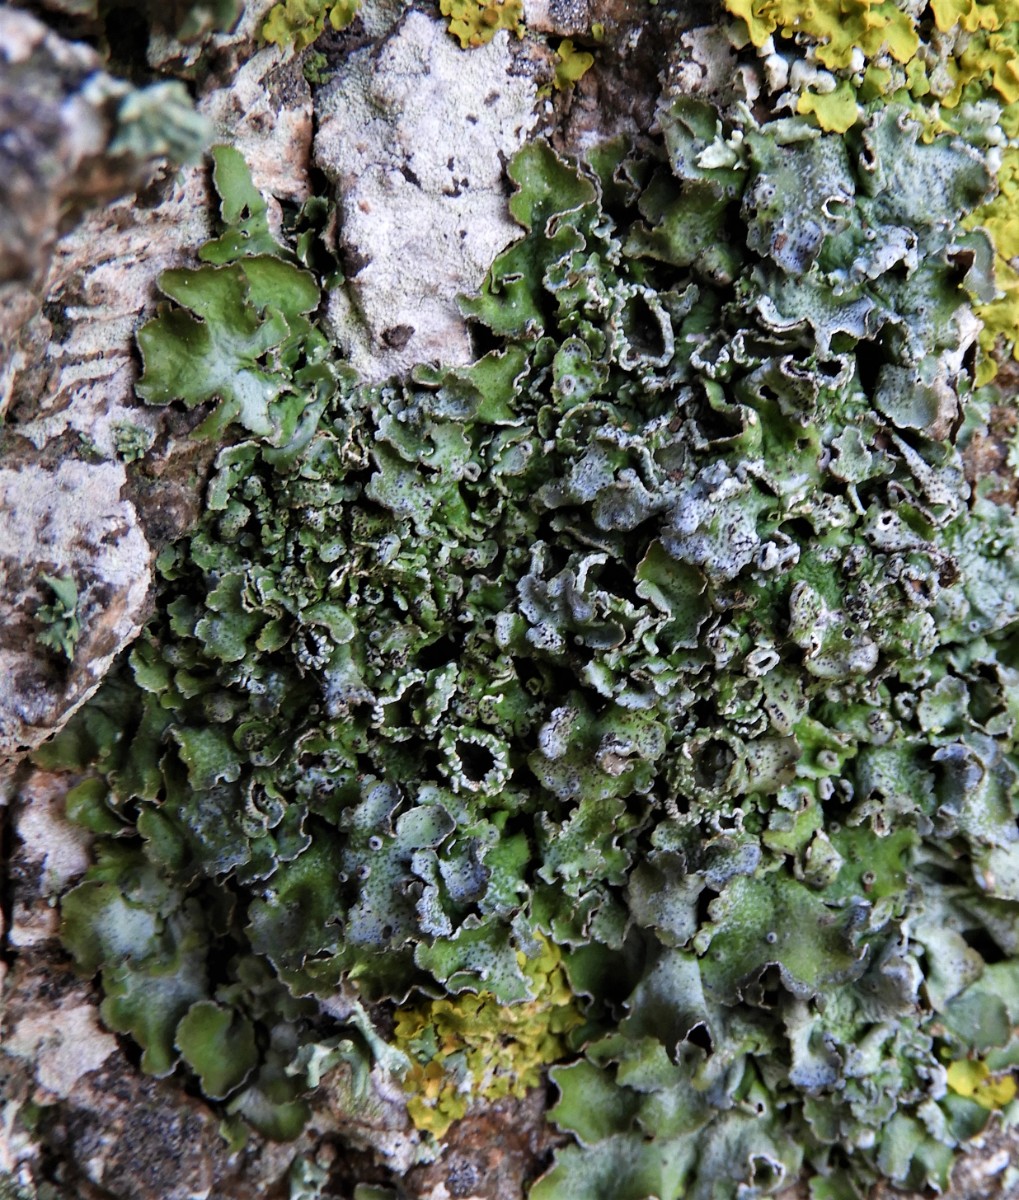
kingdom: Fungi
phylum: Ascomycota
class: Lecanoromycetes
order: Lecanorales
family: Parmeliaceae
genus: Pleurosticta
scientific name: Pleurosticta acetabulum
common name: stor skållav
